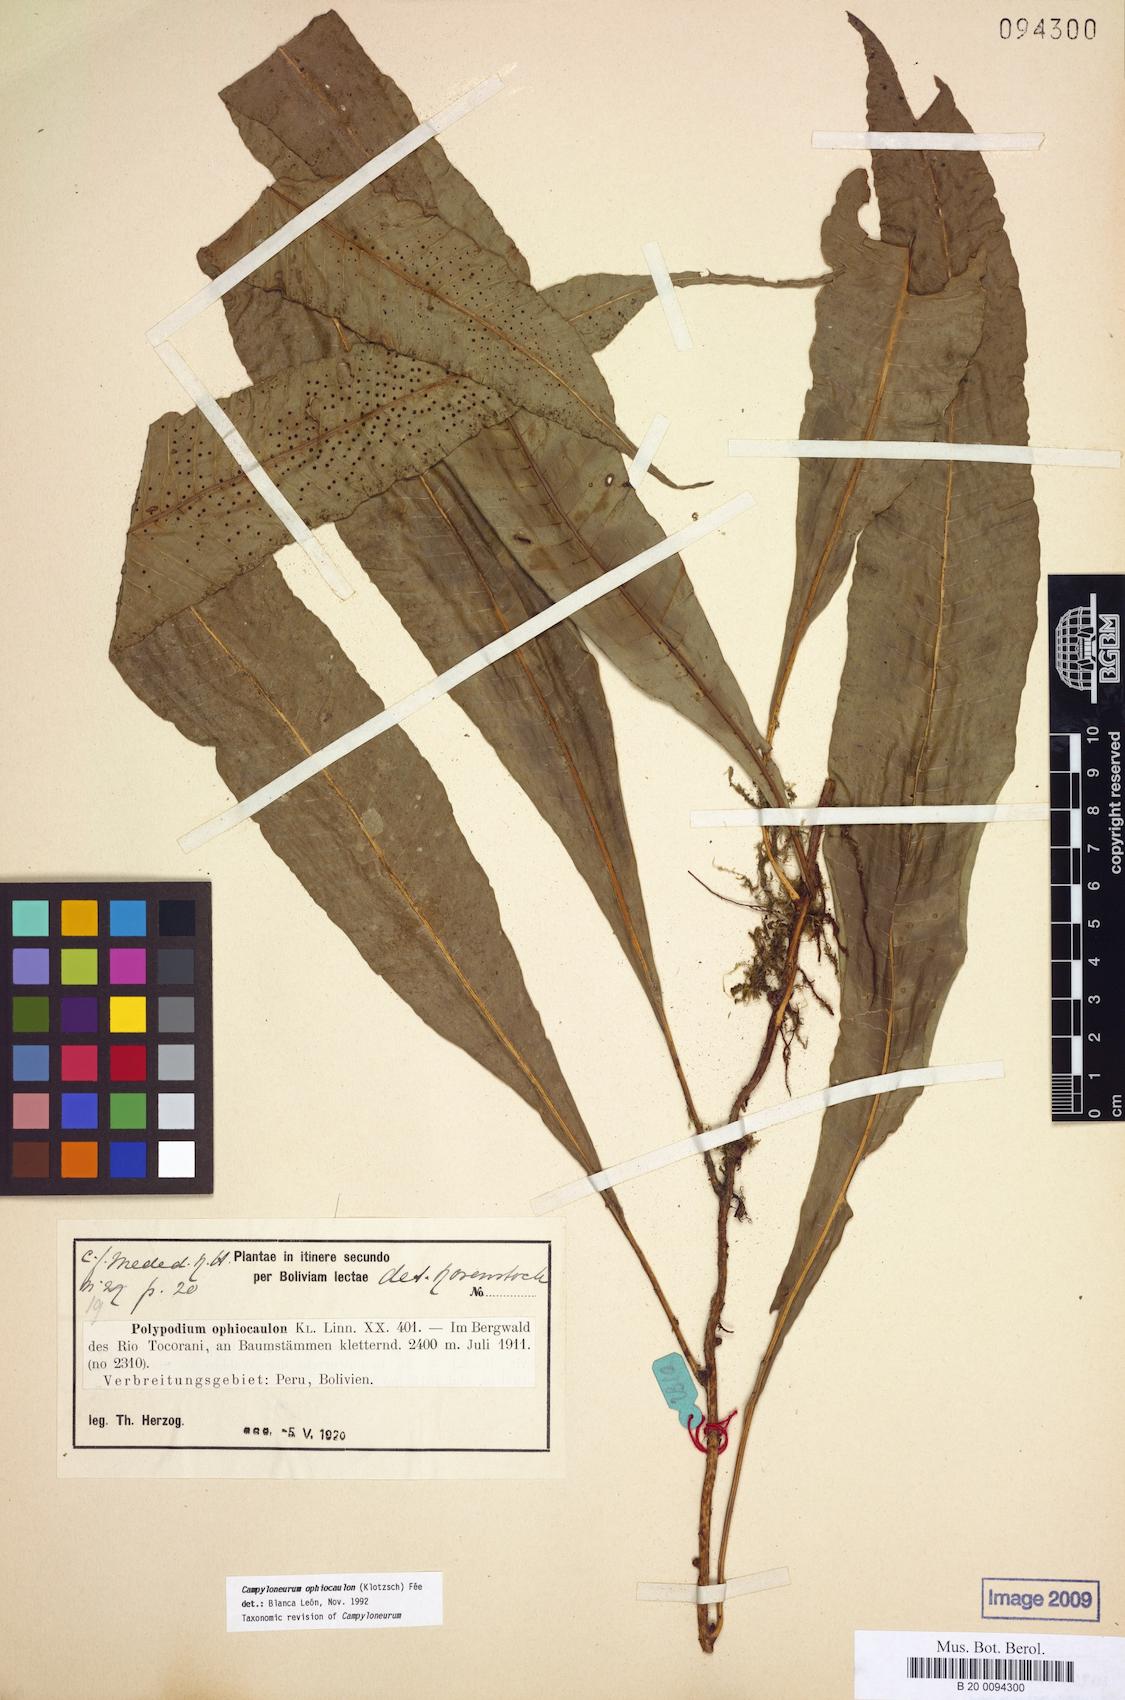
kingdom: Plantae
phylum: Tracheophyta
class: Polypodiopsida
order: Polypodiales
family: Polypodiaceae
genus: Campyloneurum
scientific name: Campyloneurum ophiocaulon
